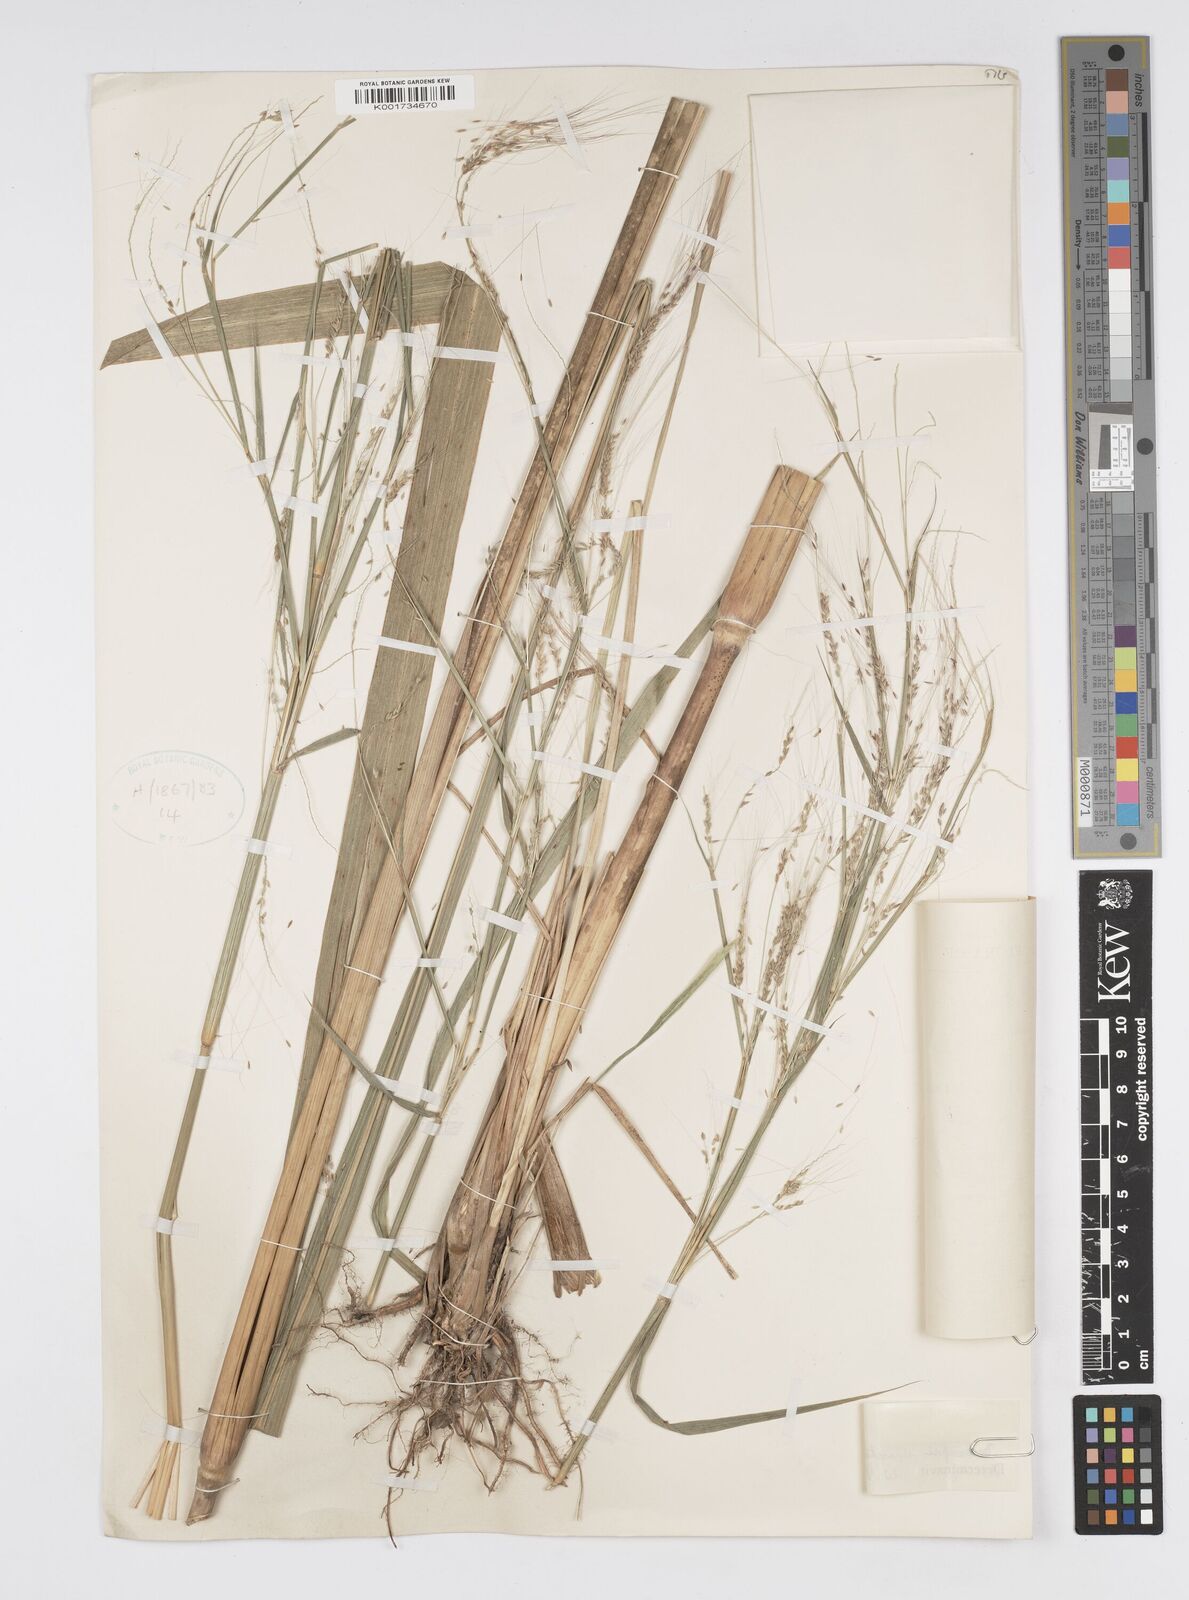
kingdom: Plantae
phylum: Tracheophyta
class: Liliopsida
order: Poales
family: Poaceae
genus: Cenchrus
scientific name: Cenchrus unisetus
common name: Natal grass
